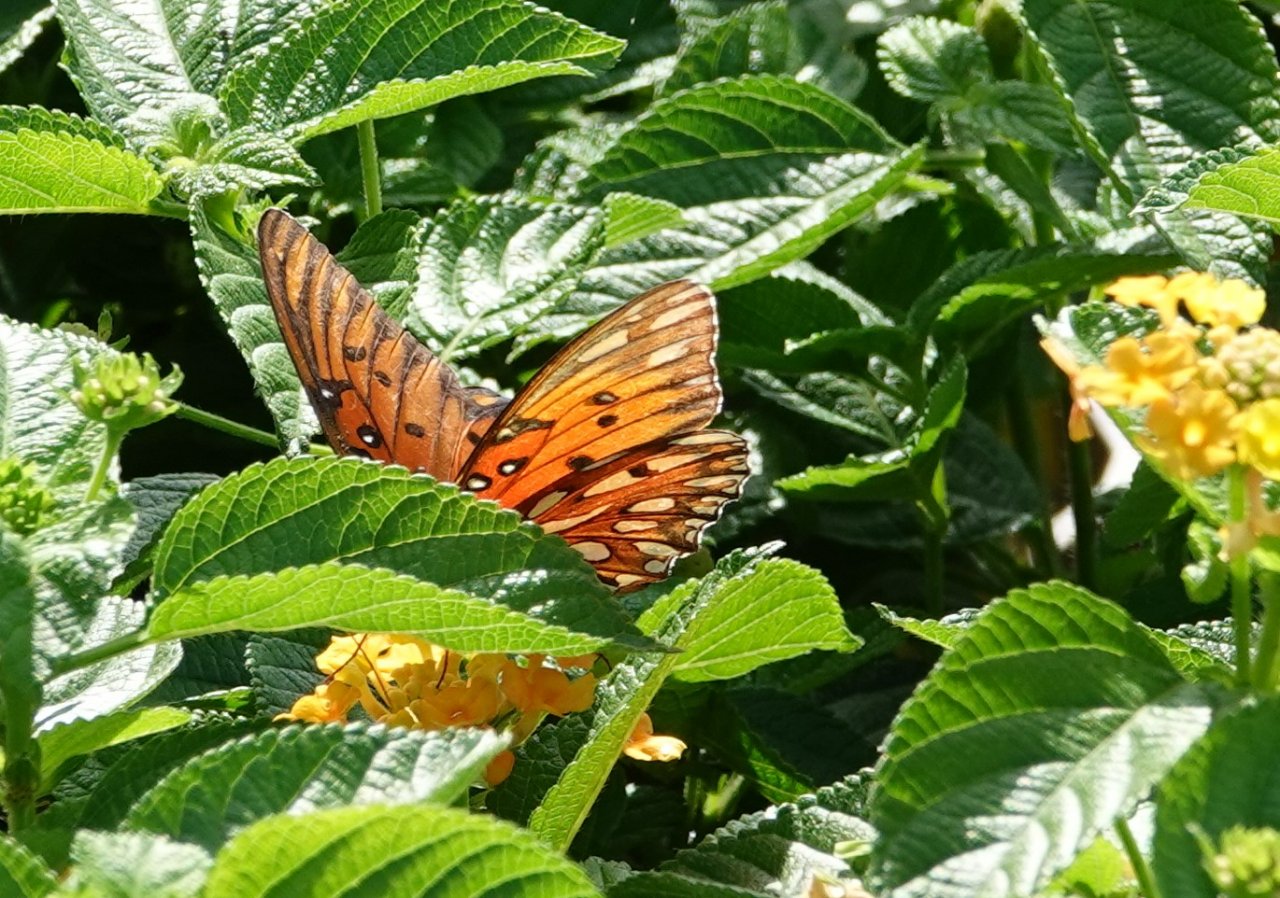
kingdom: Animalia
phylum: Arthropoda
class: Insecta
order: Lepidoptera
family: Nymphalidae
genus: Dione
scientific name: Dione vanillae
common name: Gulf Fritillary
